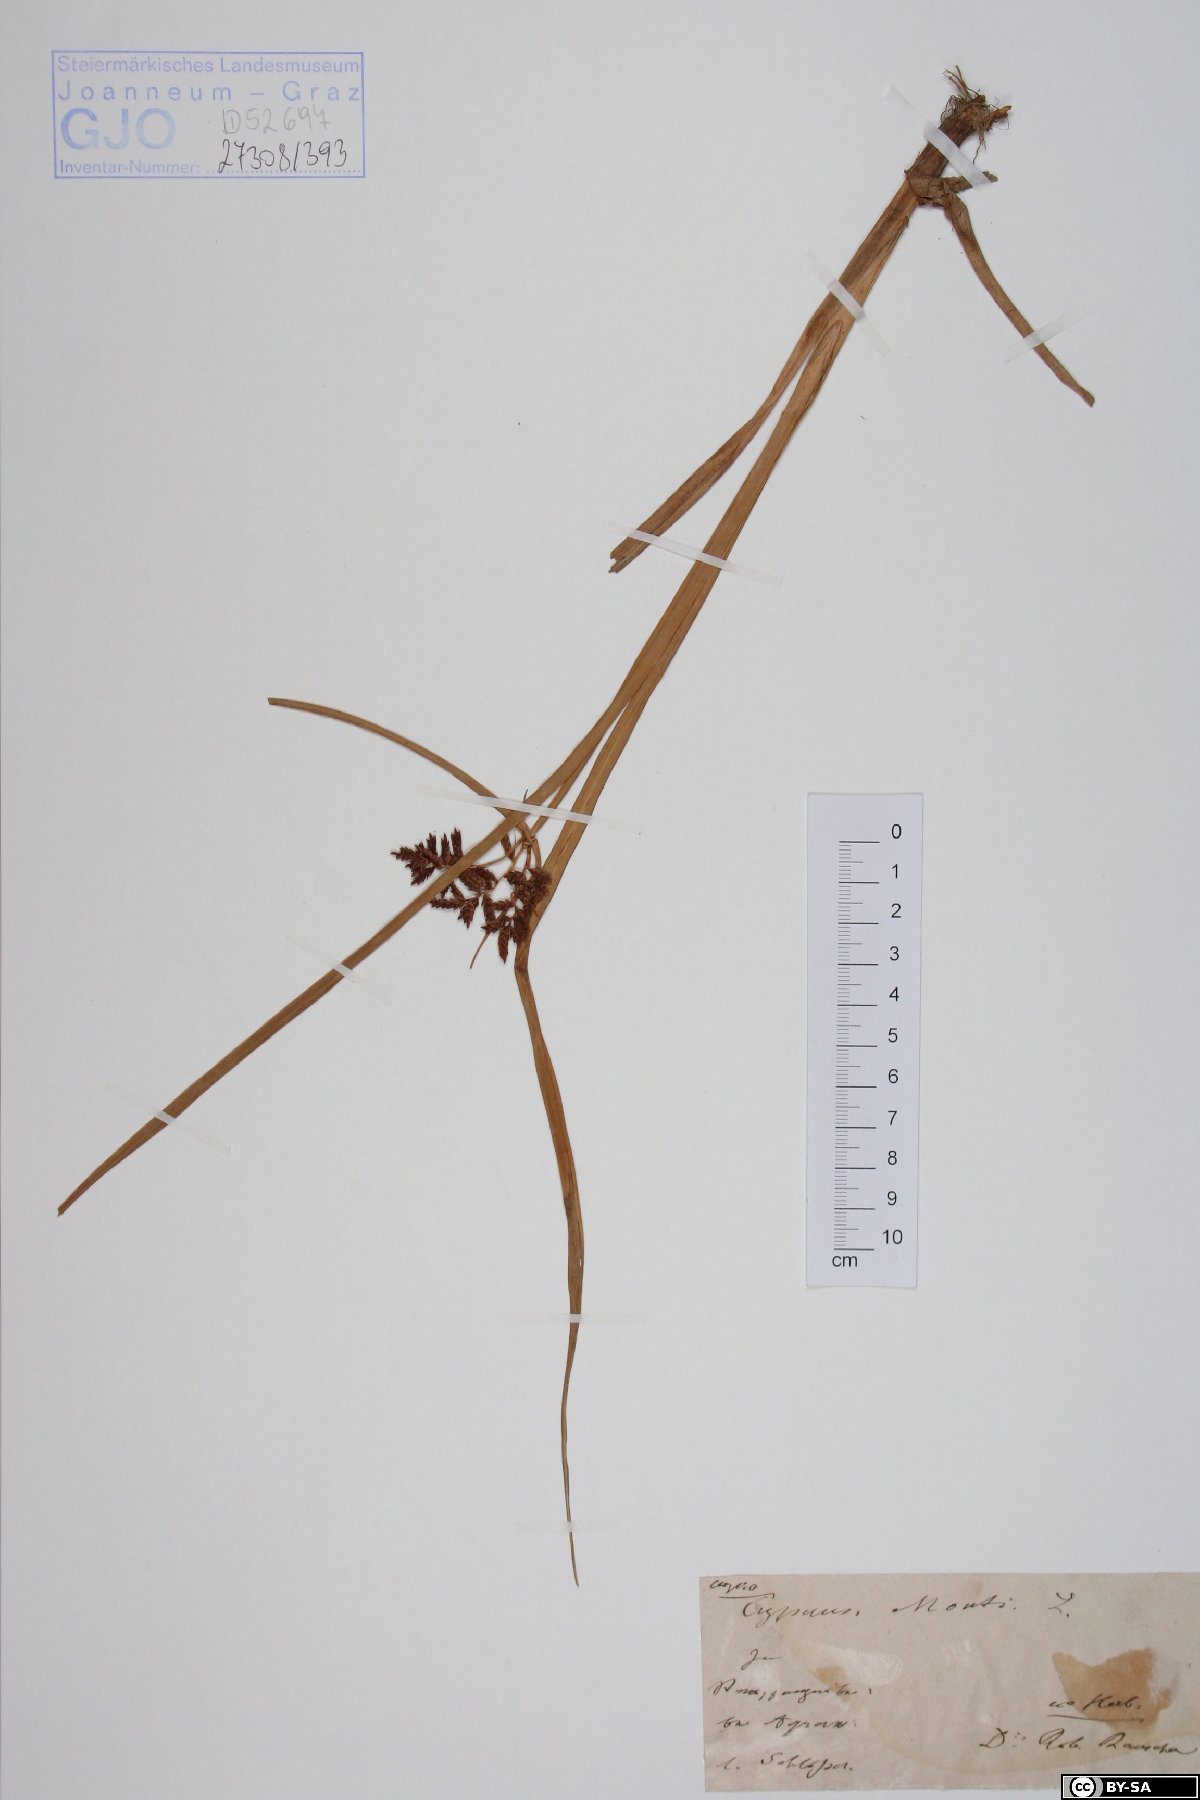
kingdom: Plantae
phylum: Tracheophyta
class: Liliopsida
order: Poales
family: Cyperaceae
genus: Cyperus
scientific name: Cyperus serotinus
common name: Tidalmarsh flatsedge
